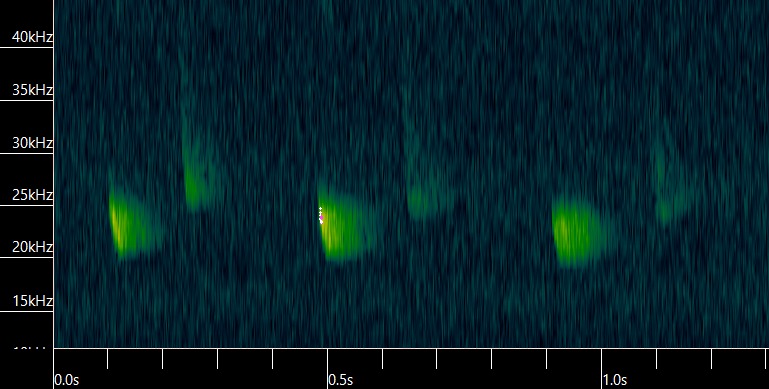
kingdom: Animalia
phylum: Chordata
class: Mammalia
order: Chiroptera
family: Vespertilionidae
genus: Nyctalus
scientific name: Nyctalus noctula
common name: Brunflagermus
